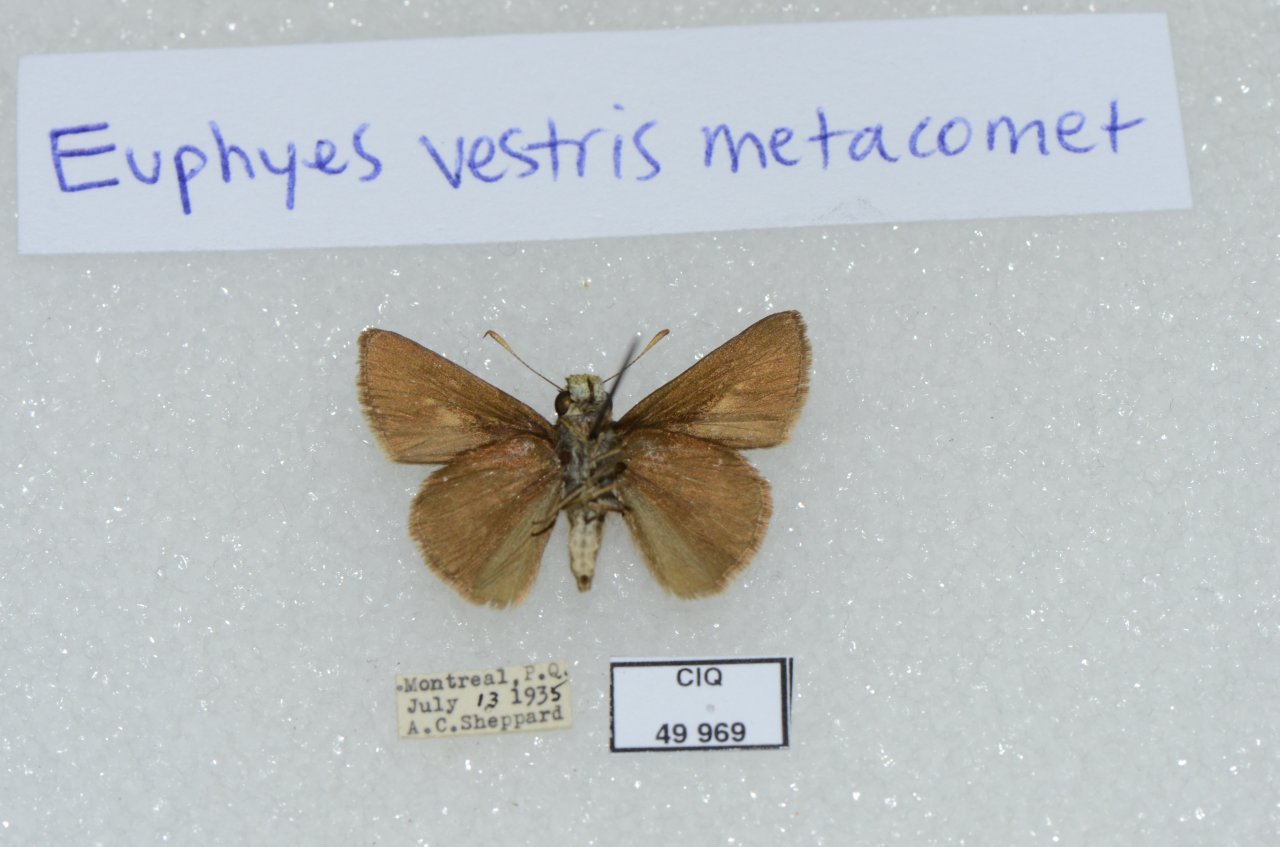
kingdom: Animalia
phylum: Arthropoda
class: Insecta
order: Lepidoptera
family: Hesperiidae
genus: Euphyes
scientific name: Euphyes vestris
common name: Dun Skipper
